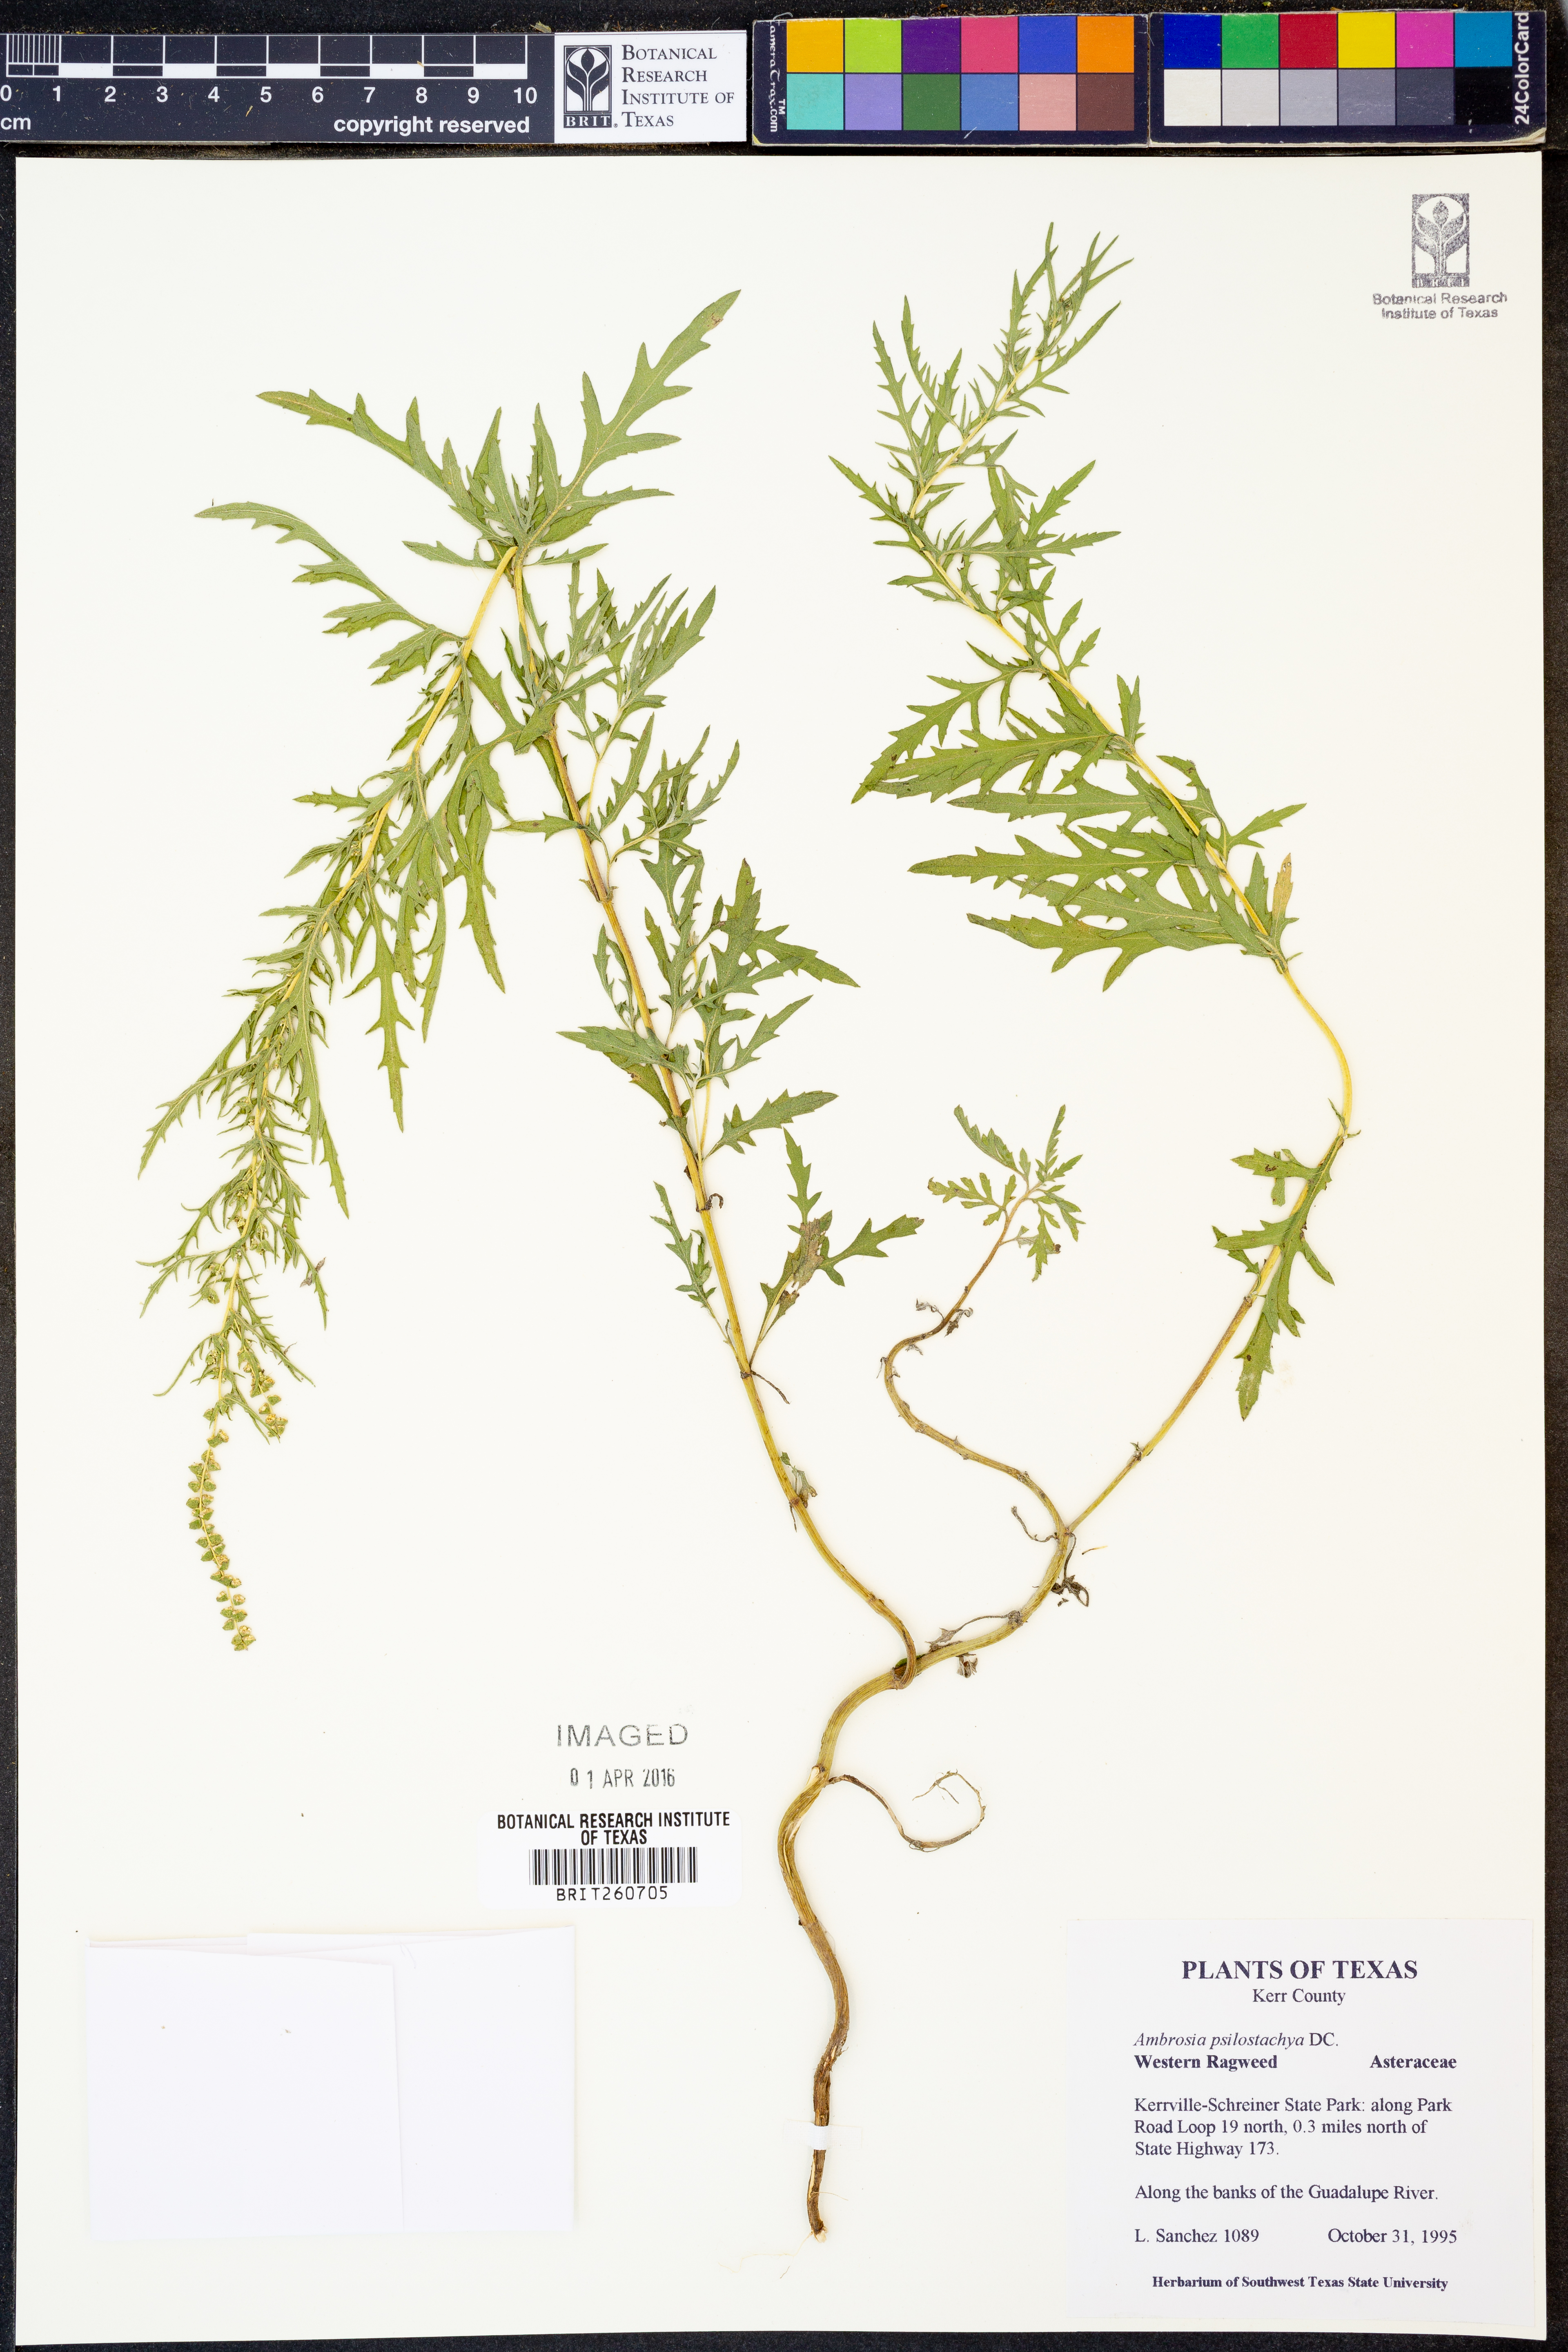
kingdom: Plantae
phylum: Tracheophyta
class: Magnoliopsida
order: Asterales
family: Asteraceae
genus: Ambrosia
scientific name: Ambrosia psilostachya
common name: Perennial ragweed
